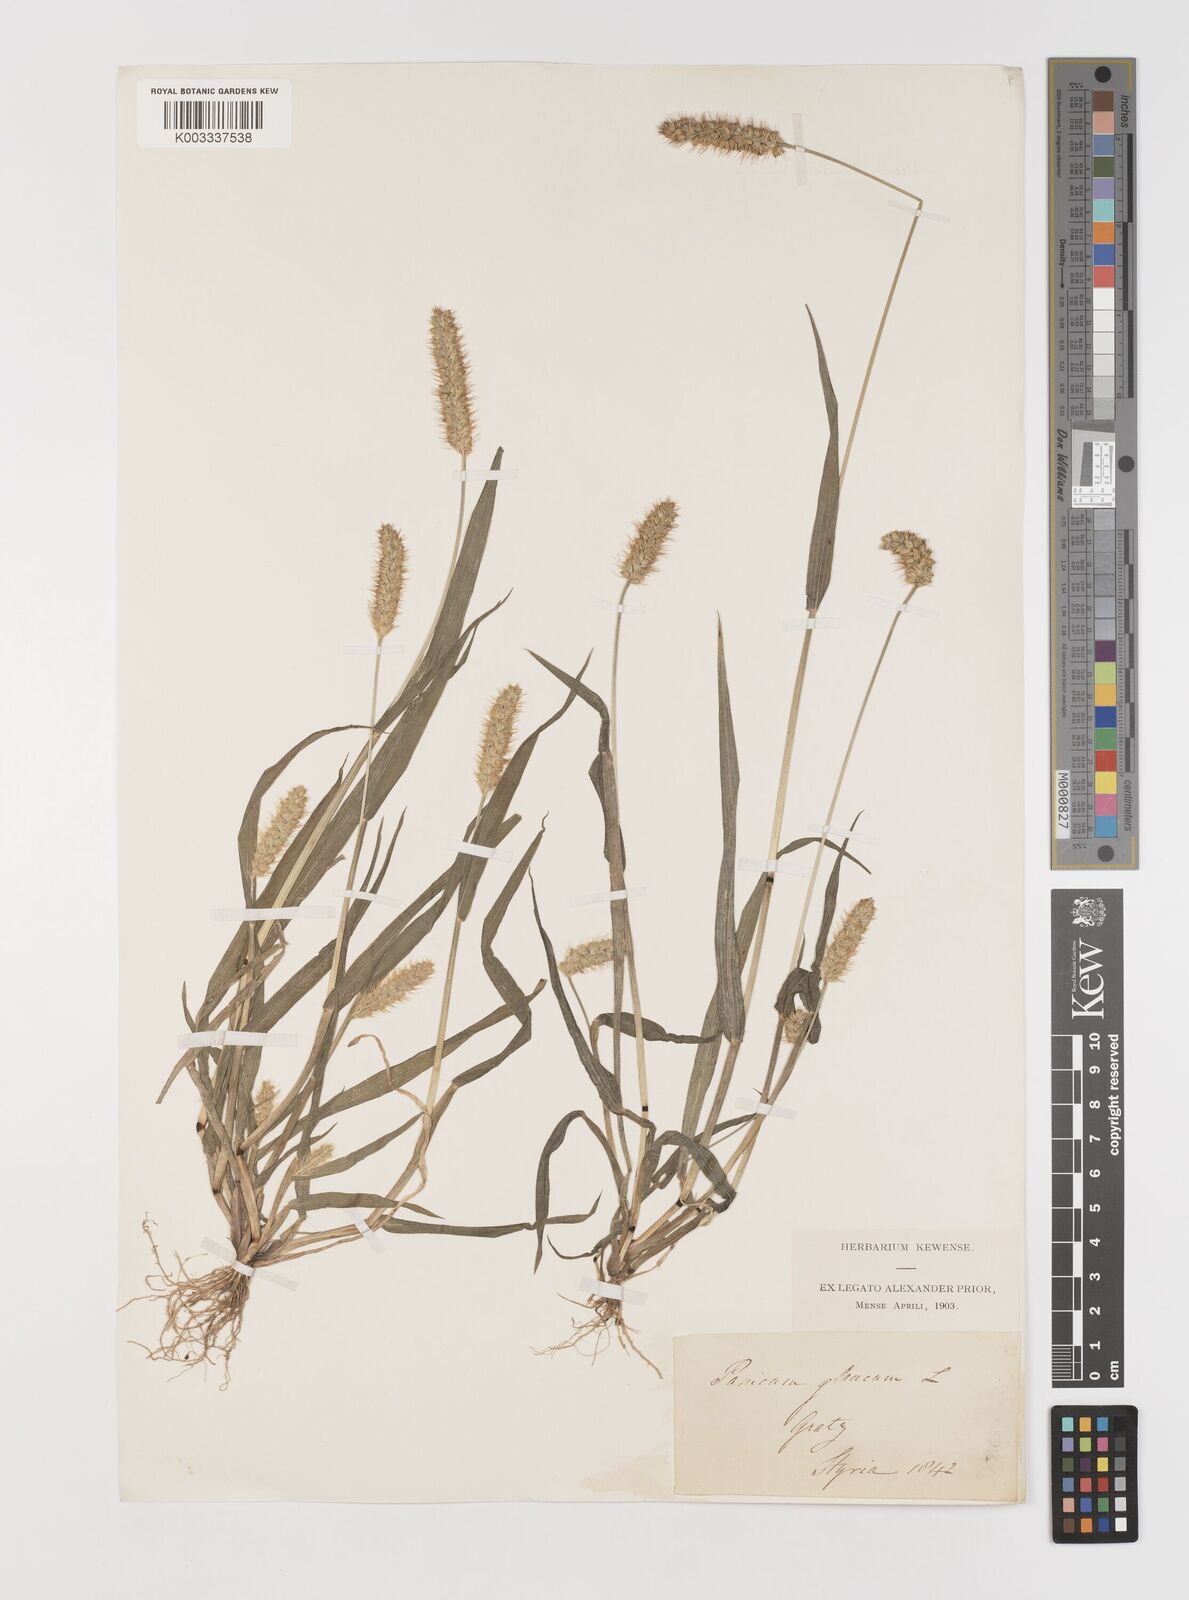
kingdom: Plantae
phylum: Tracheophyta
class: Liliopsida
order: Poales
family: Poaceae
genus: Setaria
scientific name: Setaria pumila
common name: Yellow bristle-grass
